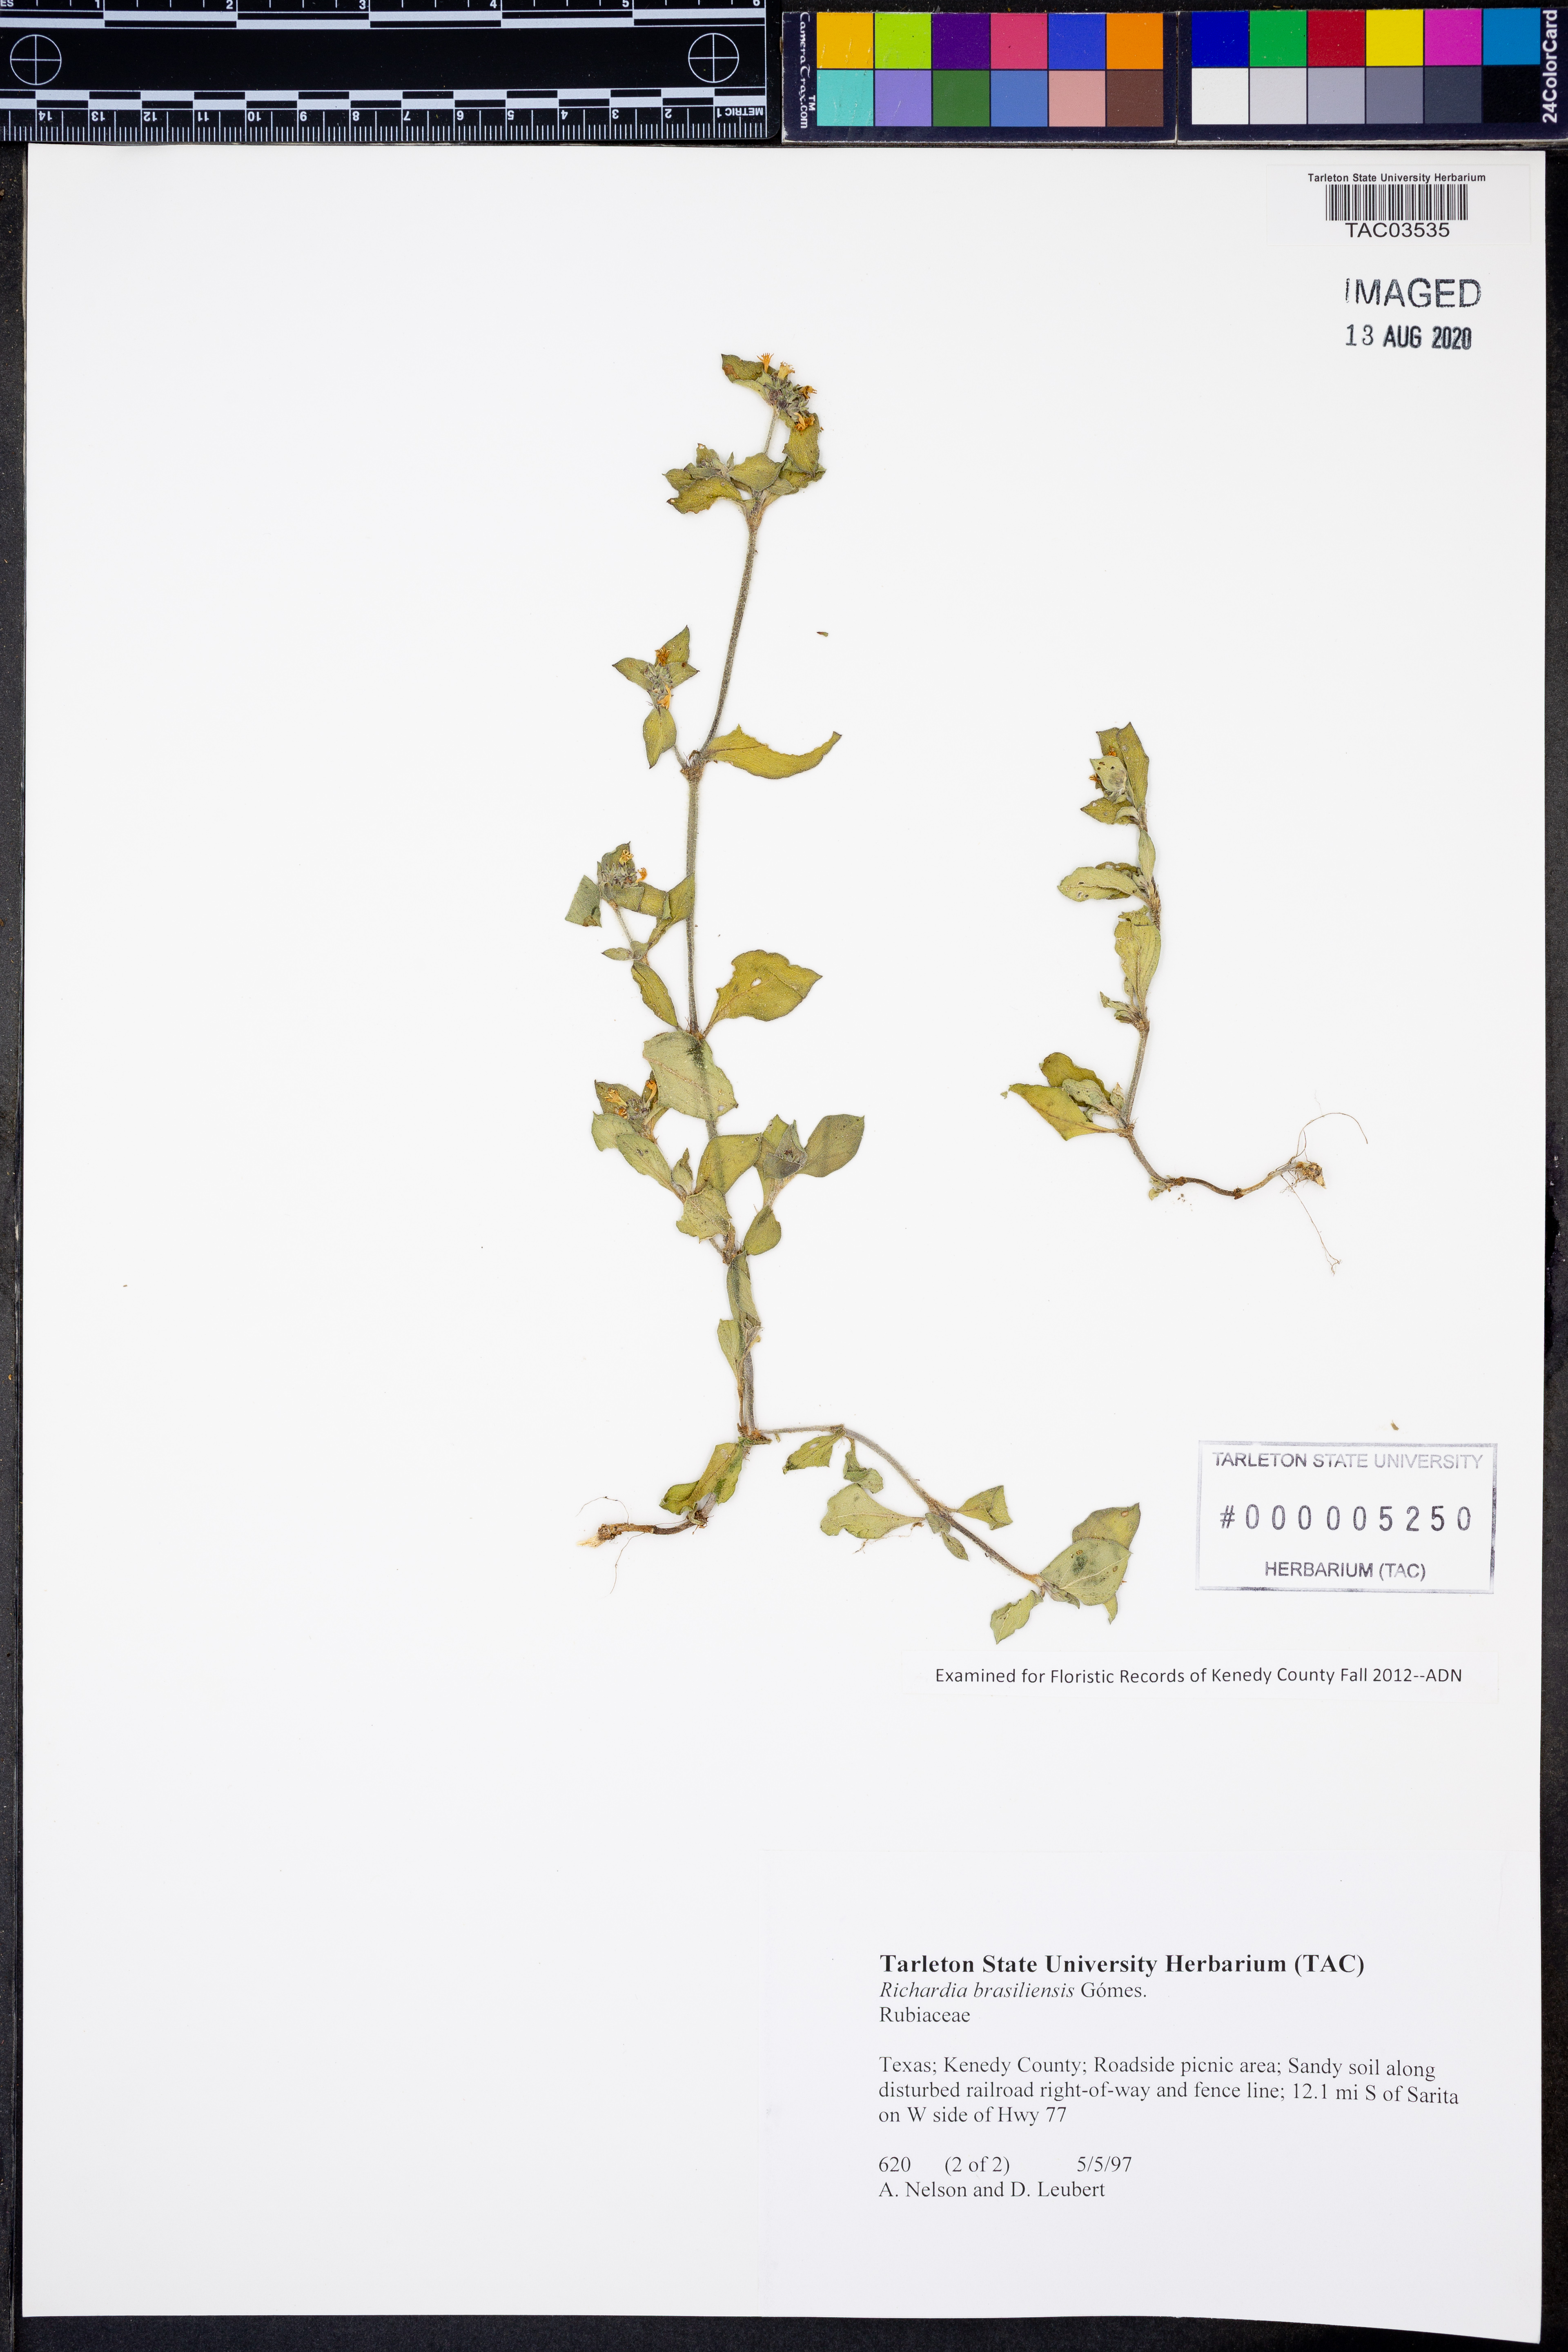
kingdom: Plantae
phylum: Tracheophyta
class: Magnoliopsida
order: Gentianales
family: Rubiaceae
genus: Richardia
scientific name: Richardia brasiliensis
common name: Tropical mexican clover
